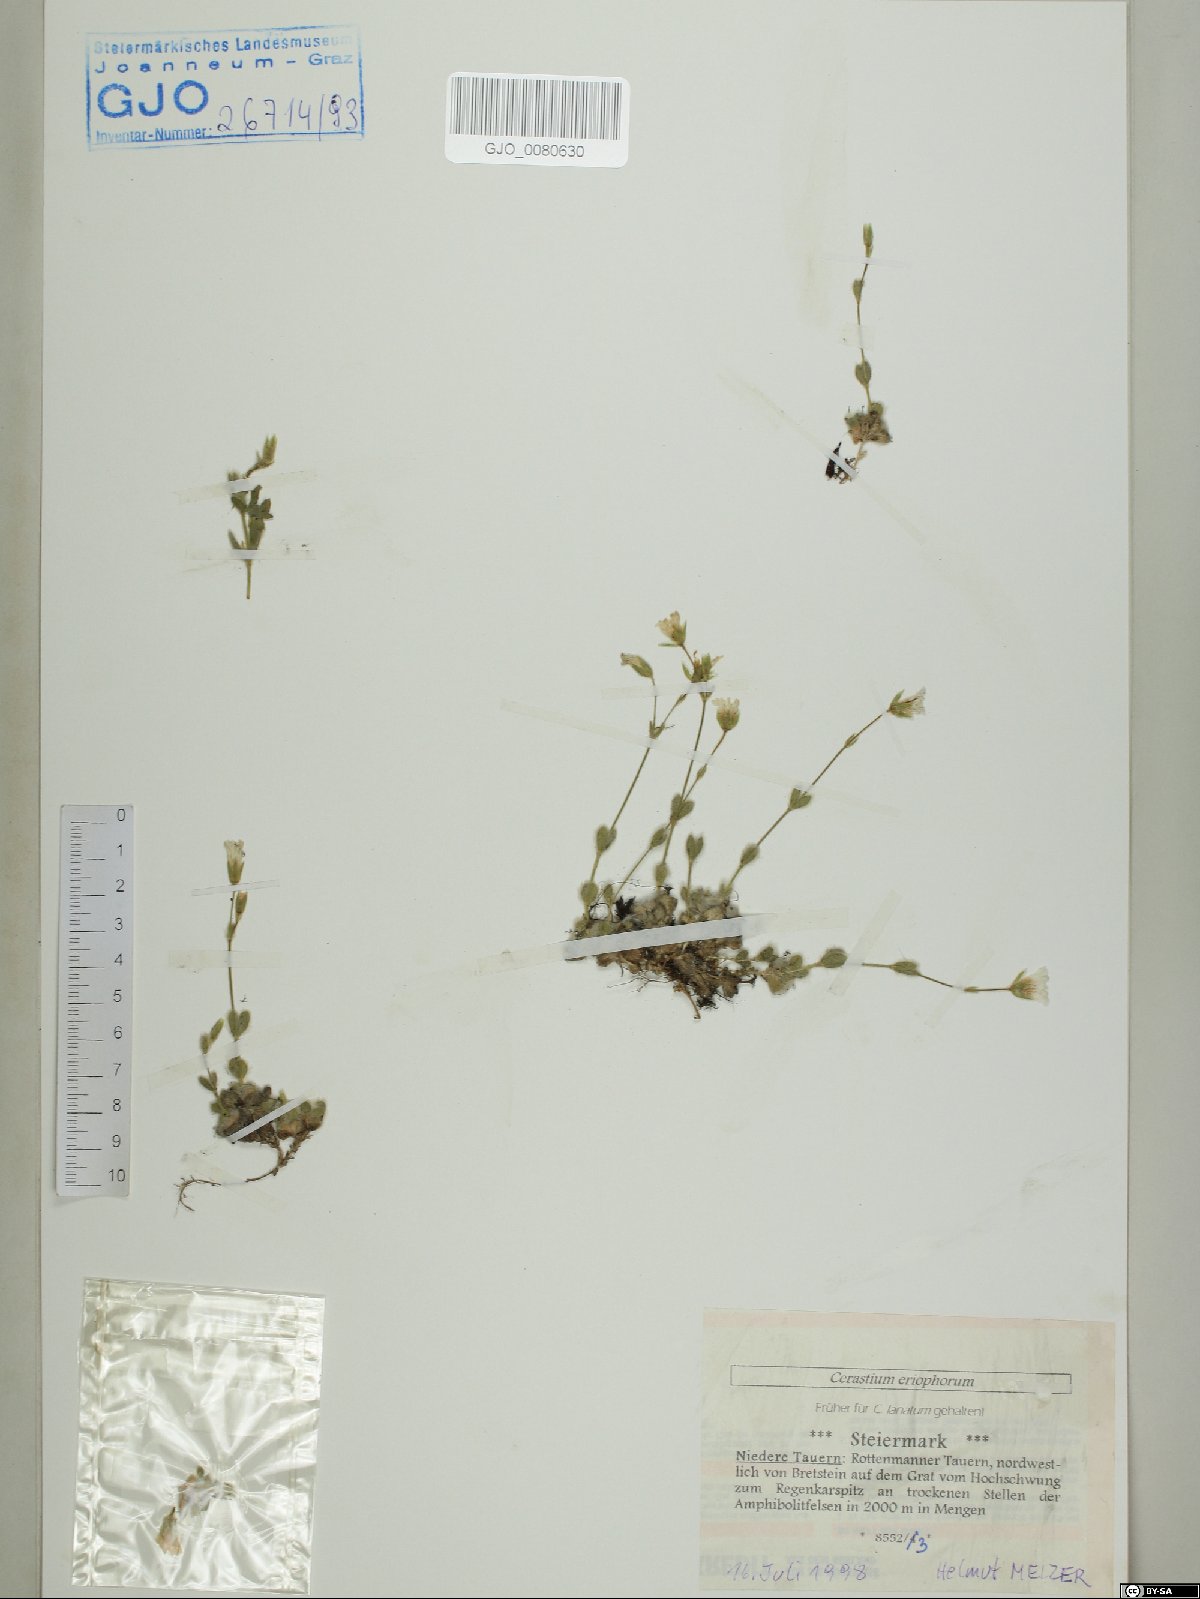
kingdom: Plantae
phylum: Tracheophyta
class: Magnoliopsida
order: Caryophyllales
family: Caryophyllaceae
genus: Cerastium
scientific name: Cerastium eriophorum
